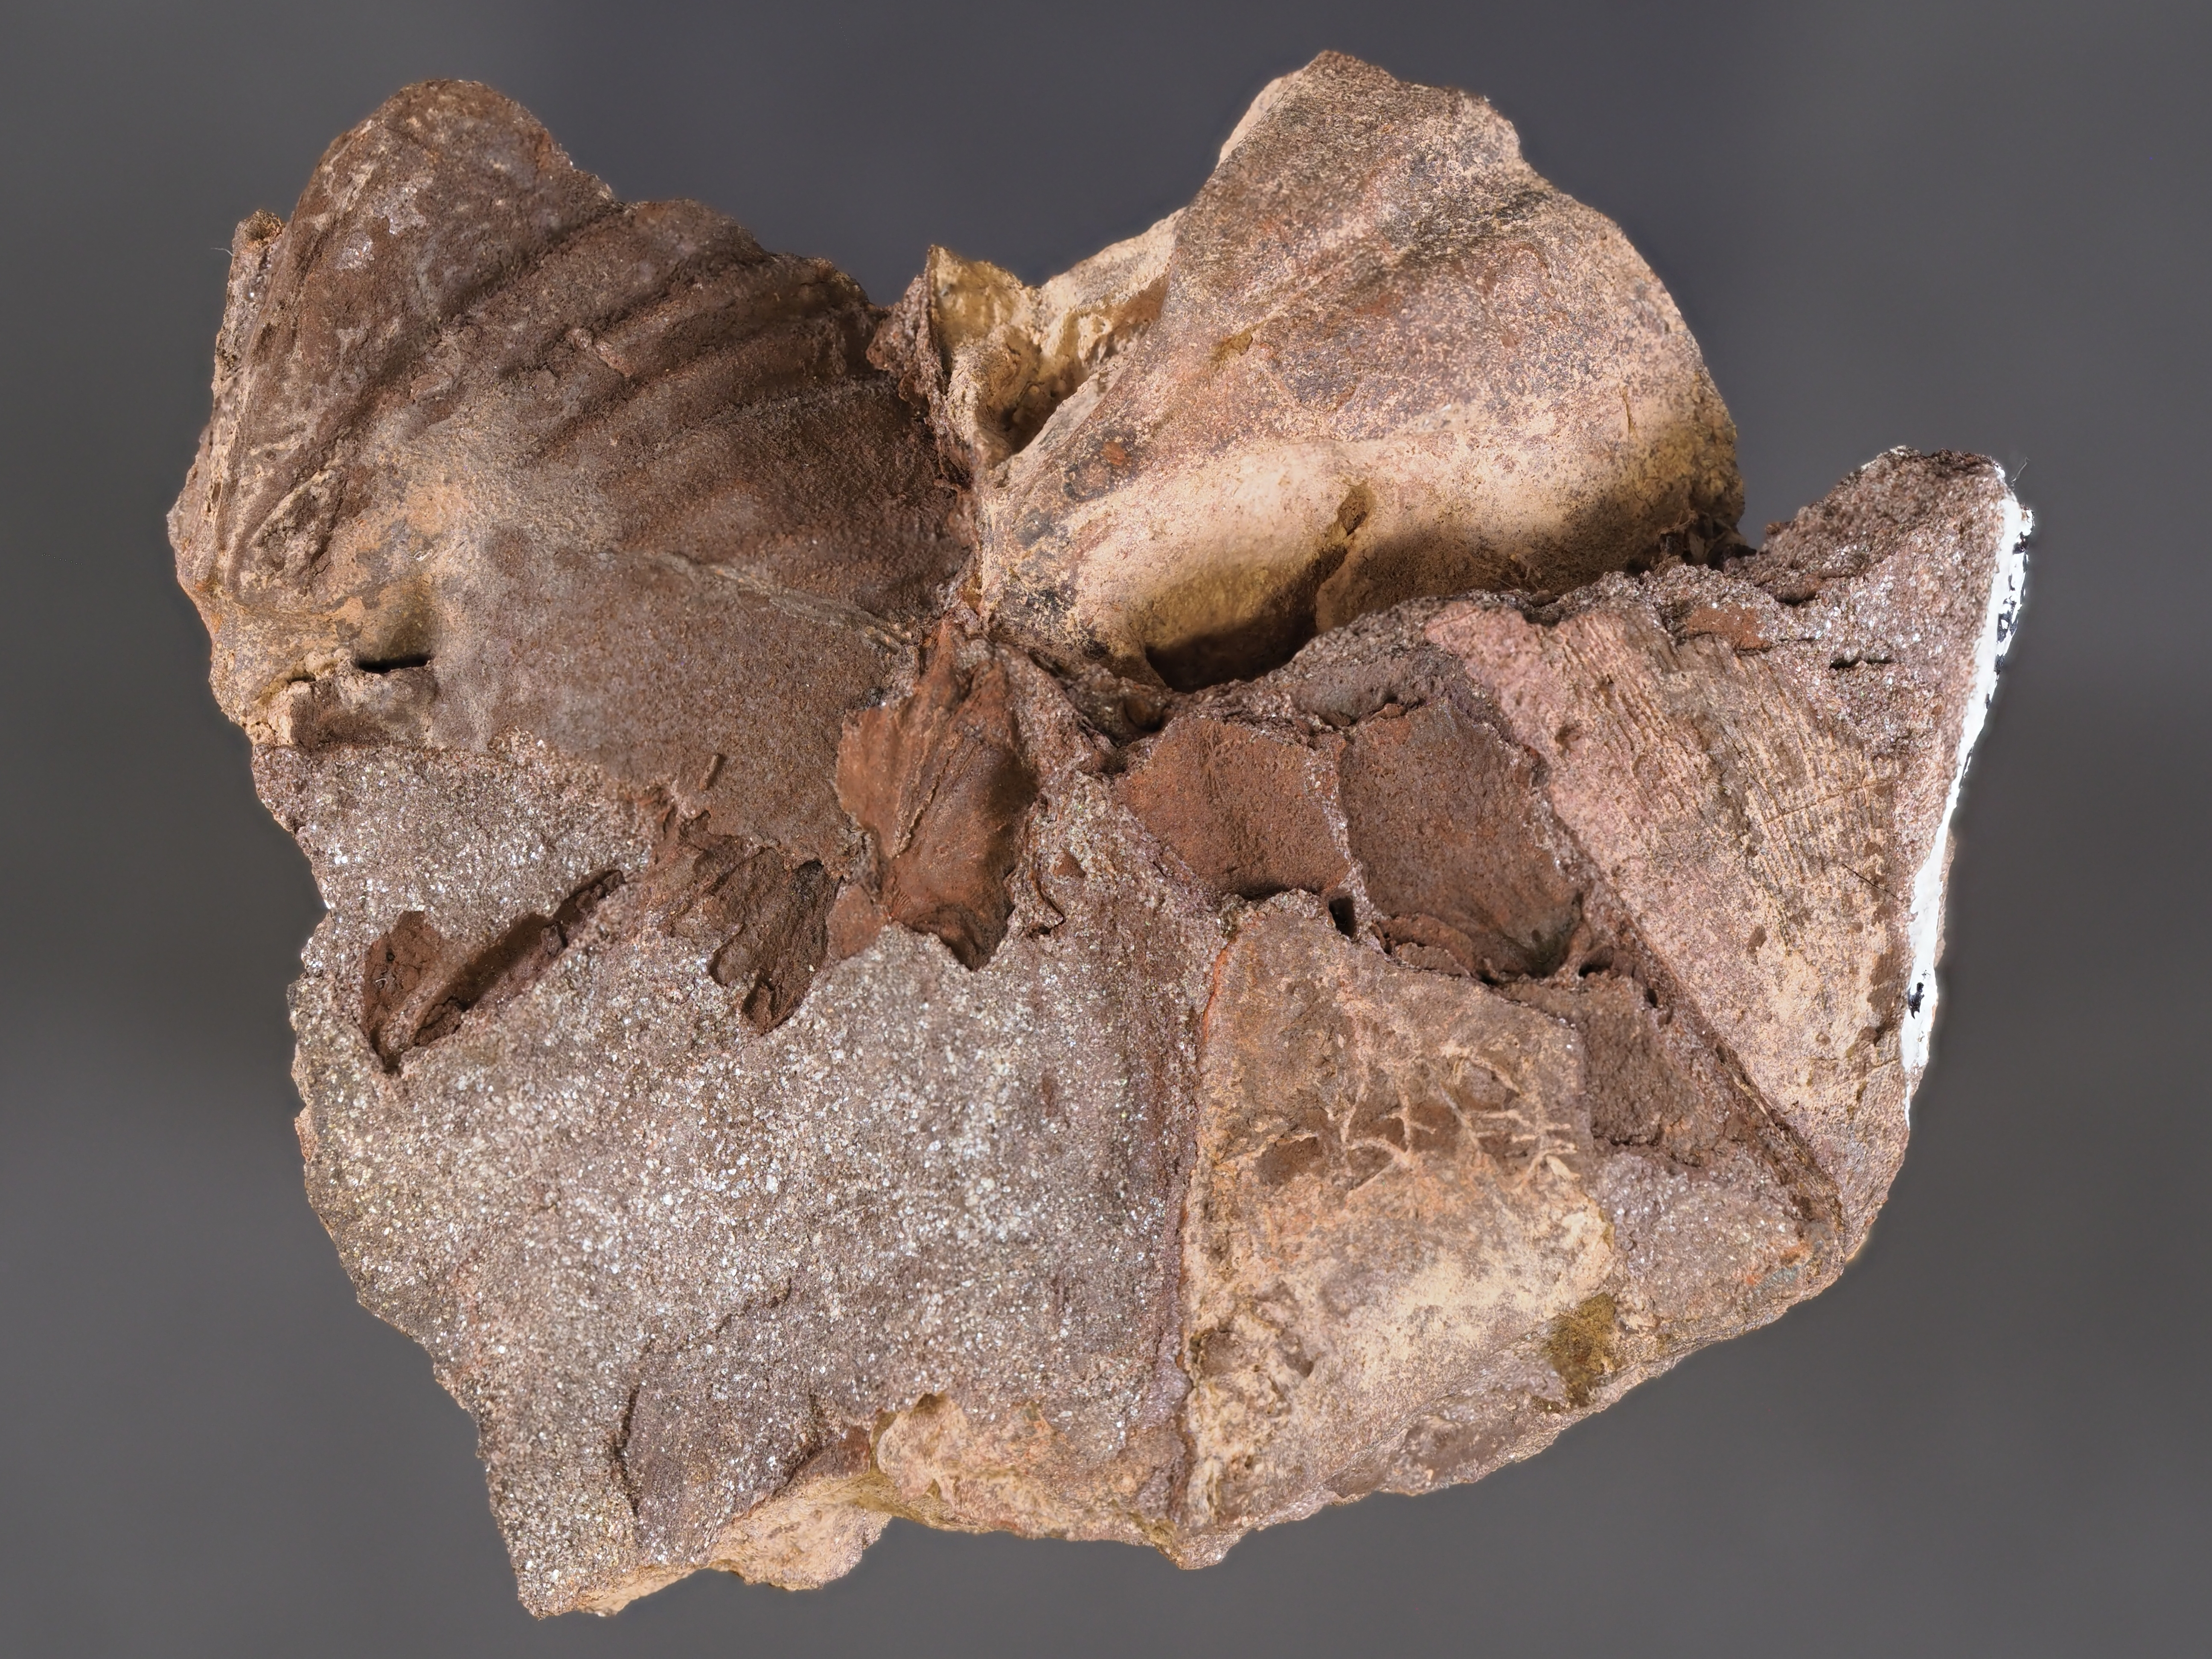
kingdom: Animalia
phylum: Brachiopoda
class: Rhynchonellata
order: Terebratulida
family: Centronellidae
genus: Meganteris
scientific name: Meganteris ovata
